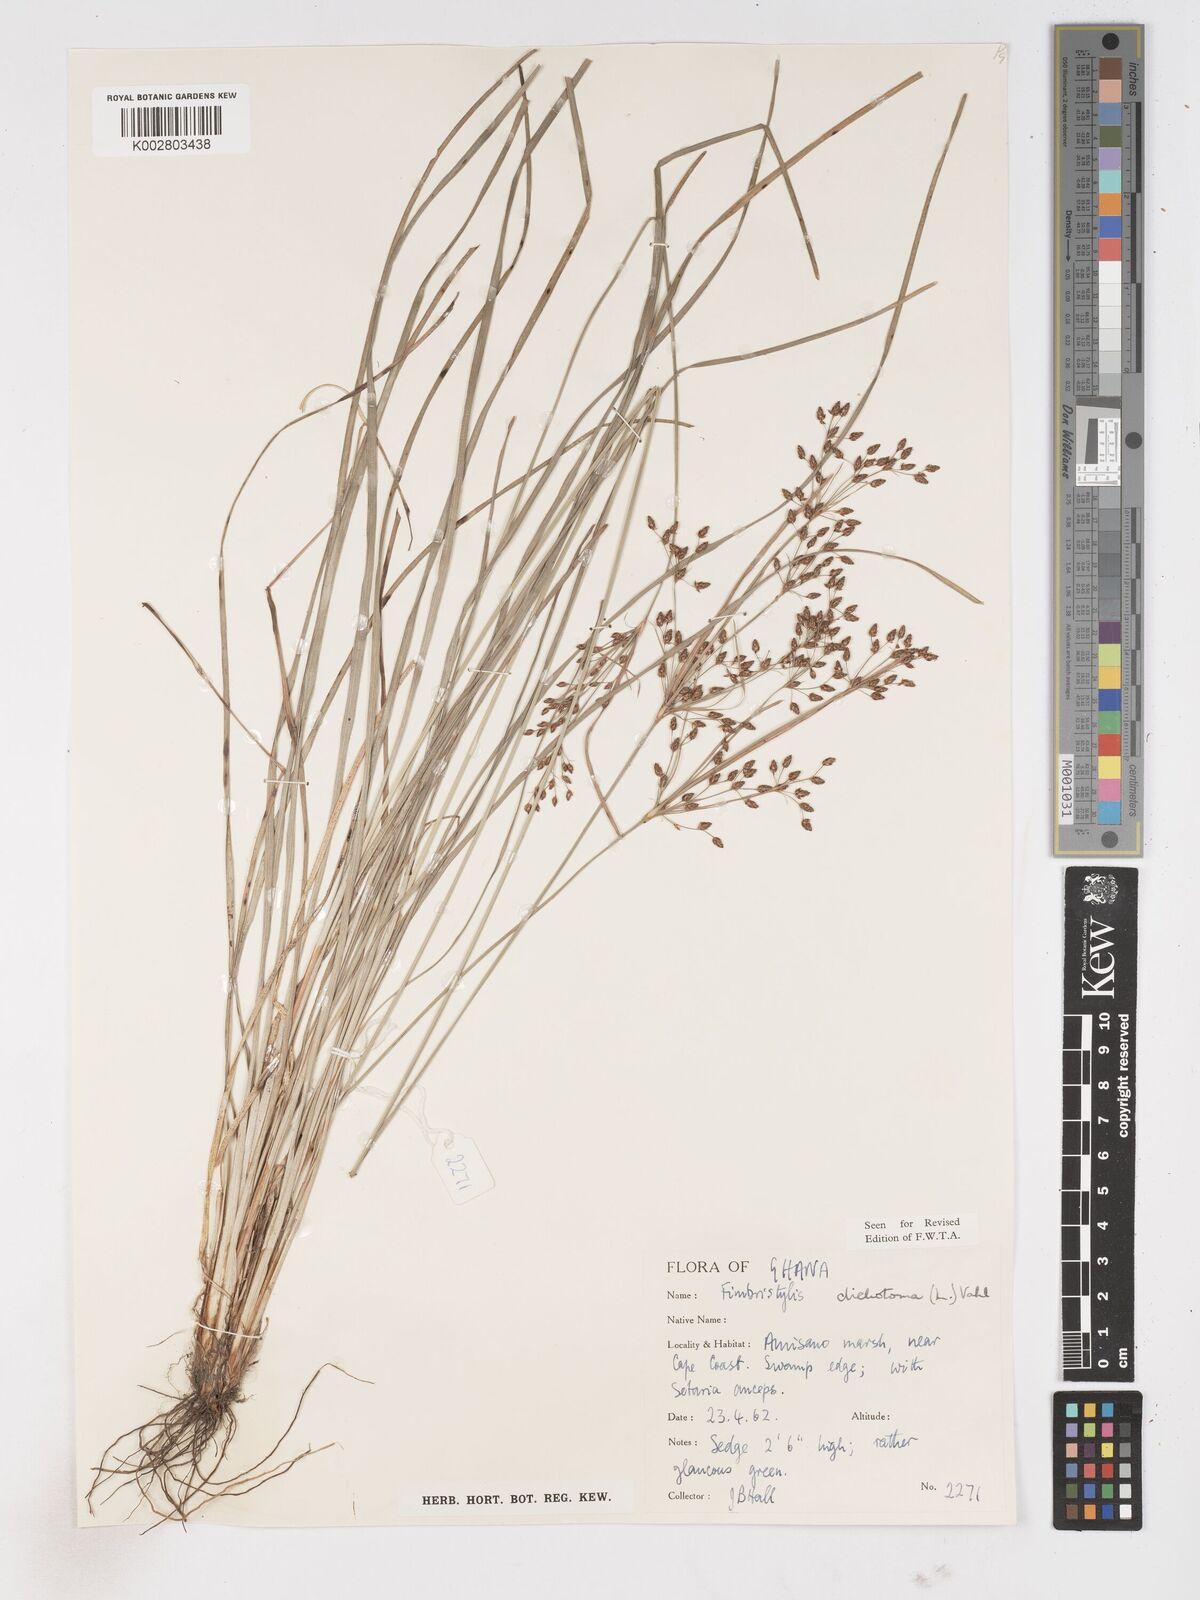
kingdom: Plantae
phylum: Tracheophyta
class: Liliopsida
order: Poales
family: Cyperaceae
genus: Fimbristylis
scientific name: Fimbristylis dichotoma
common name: Forked fimbry
